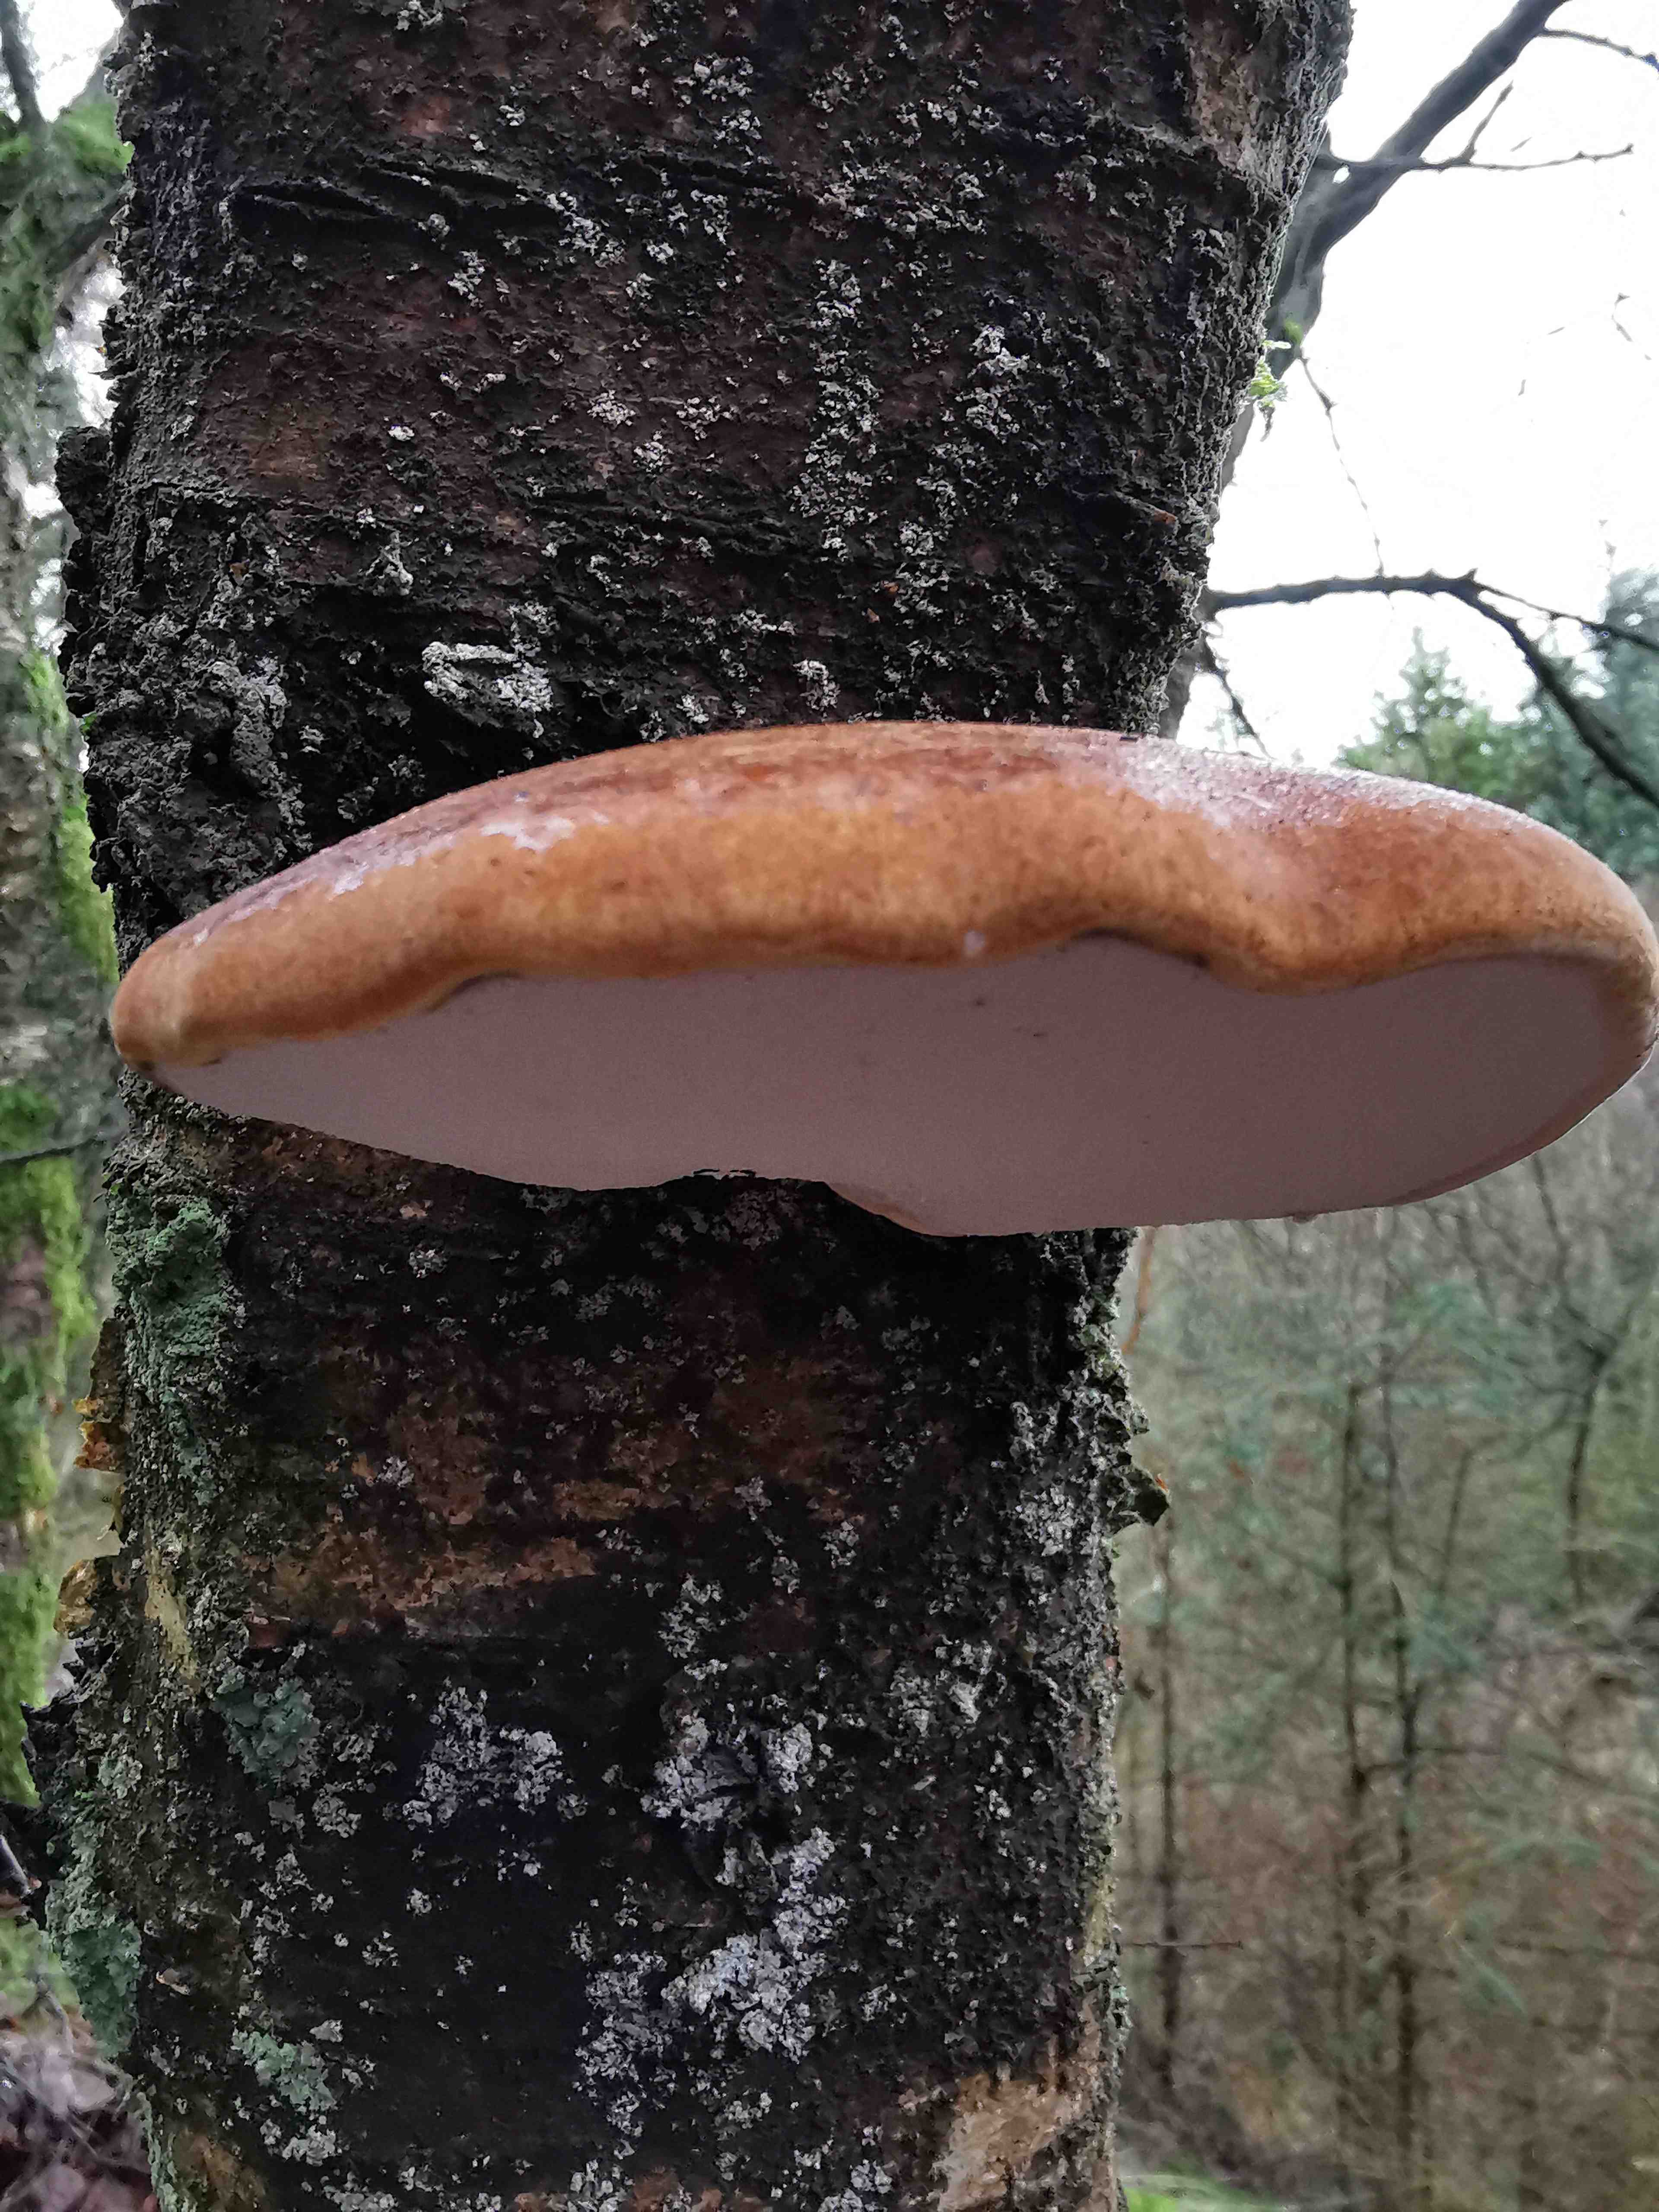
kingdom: Fungi
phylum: Basidiomycota
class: Agaricomycetes
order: Polyporales
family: Fomitopsidaceae
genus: Fomitopsis
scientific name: Fomitopsis betulina
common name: birkeporesvamp
